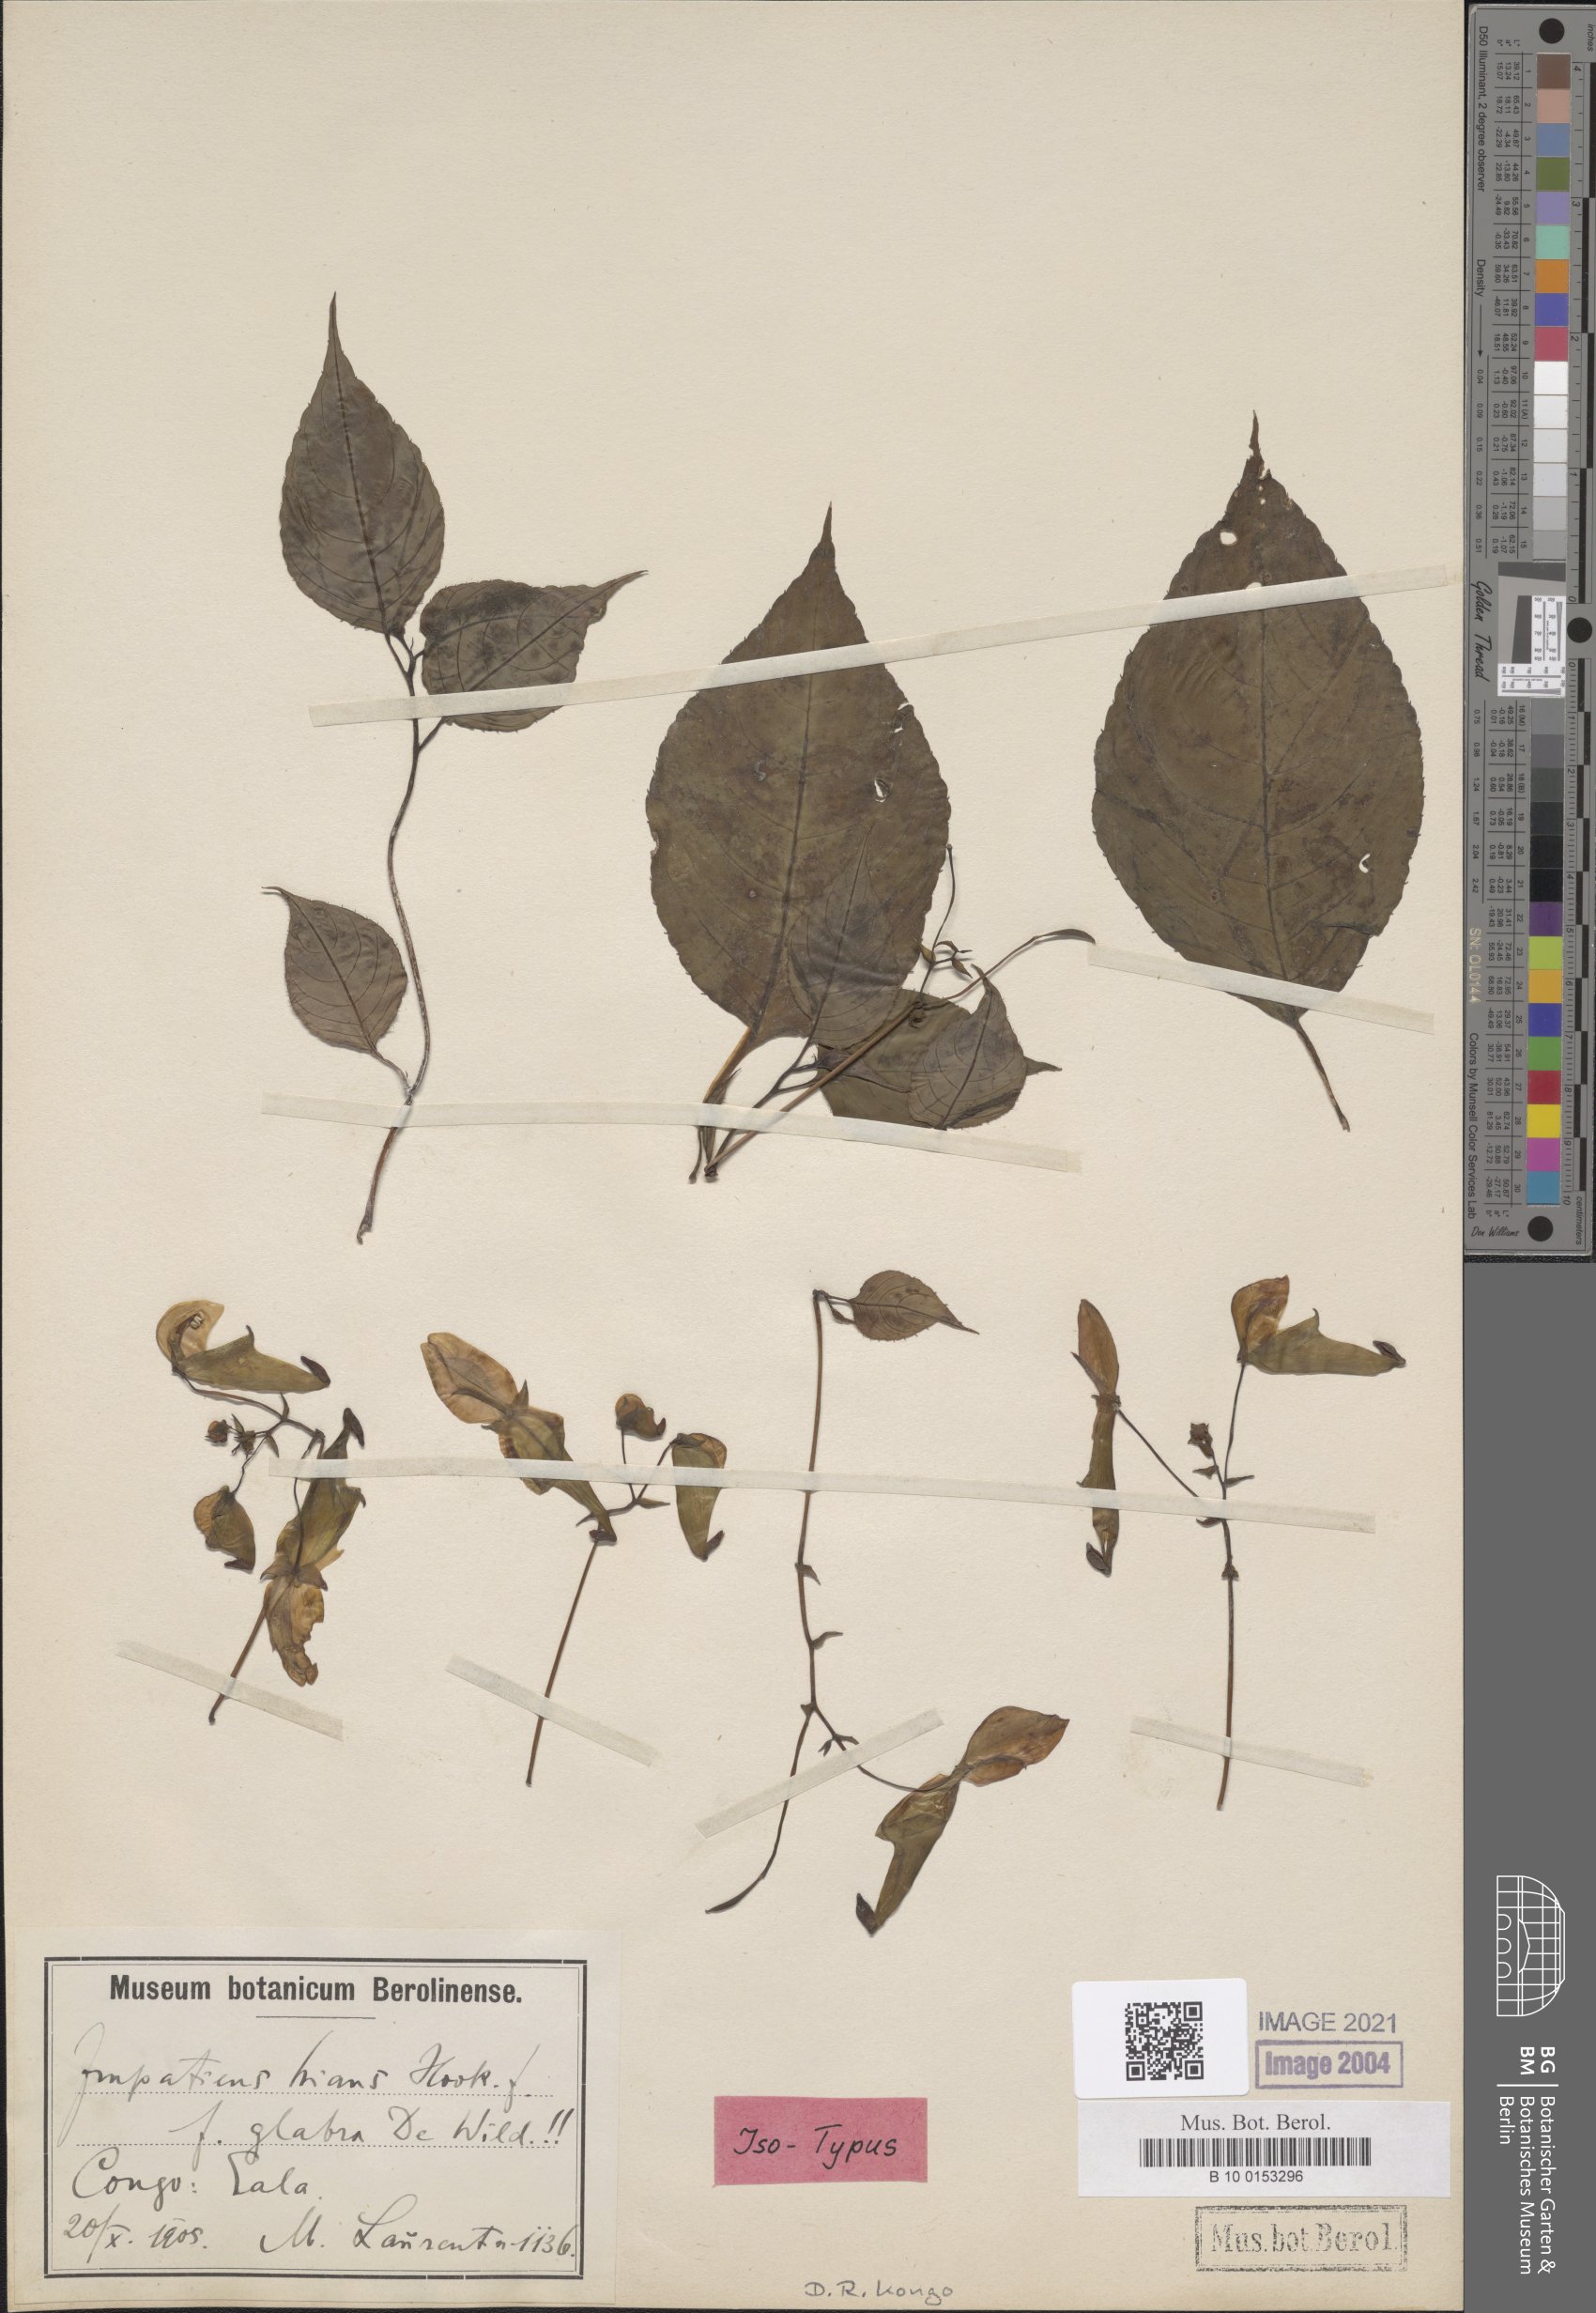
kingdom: Plantae
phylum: Tracheophyta
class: Magnoliopsida
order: Ericales
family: Balsaminaceae
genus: Impatiens
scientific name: Impatiens hians
